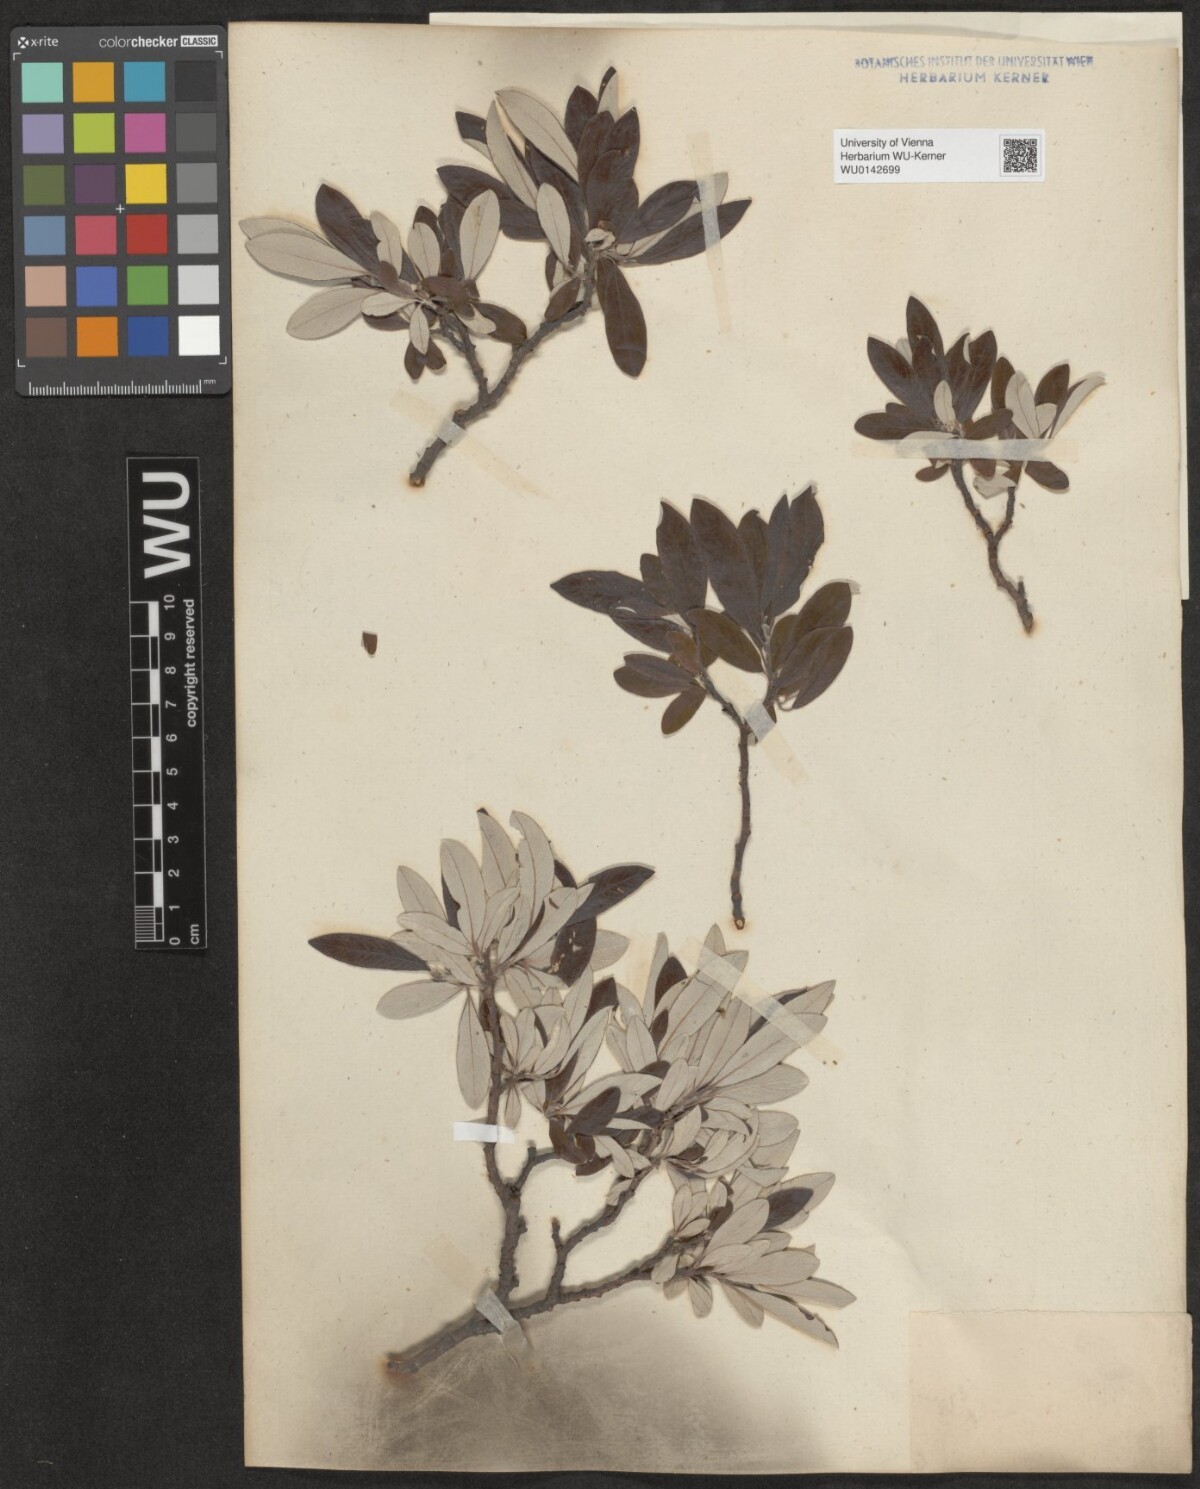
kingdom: Plantae
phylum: Tracheophyta
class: Magnoliopsida
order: Malpighiales
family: Salicaceae
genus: Salix
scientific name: Salix helvetica
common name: Swiss willow
